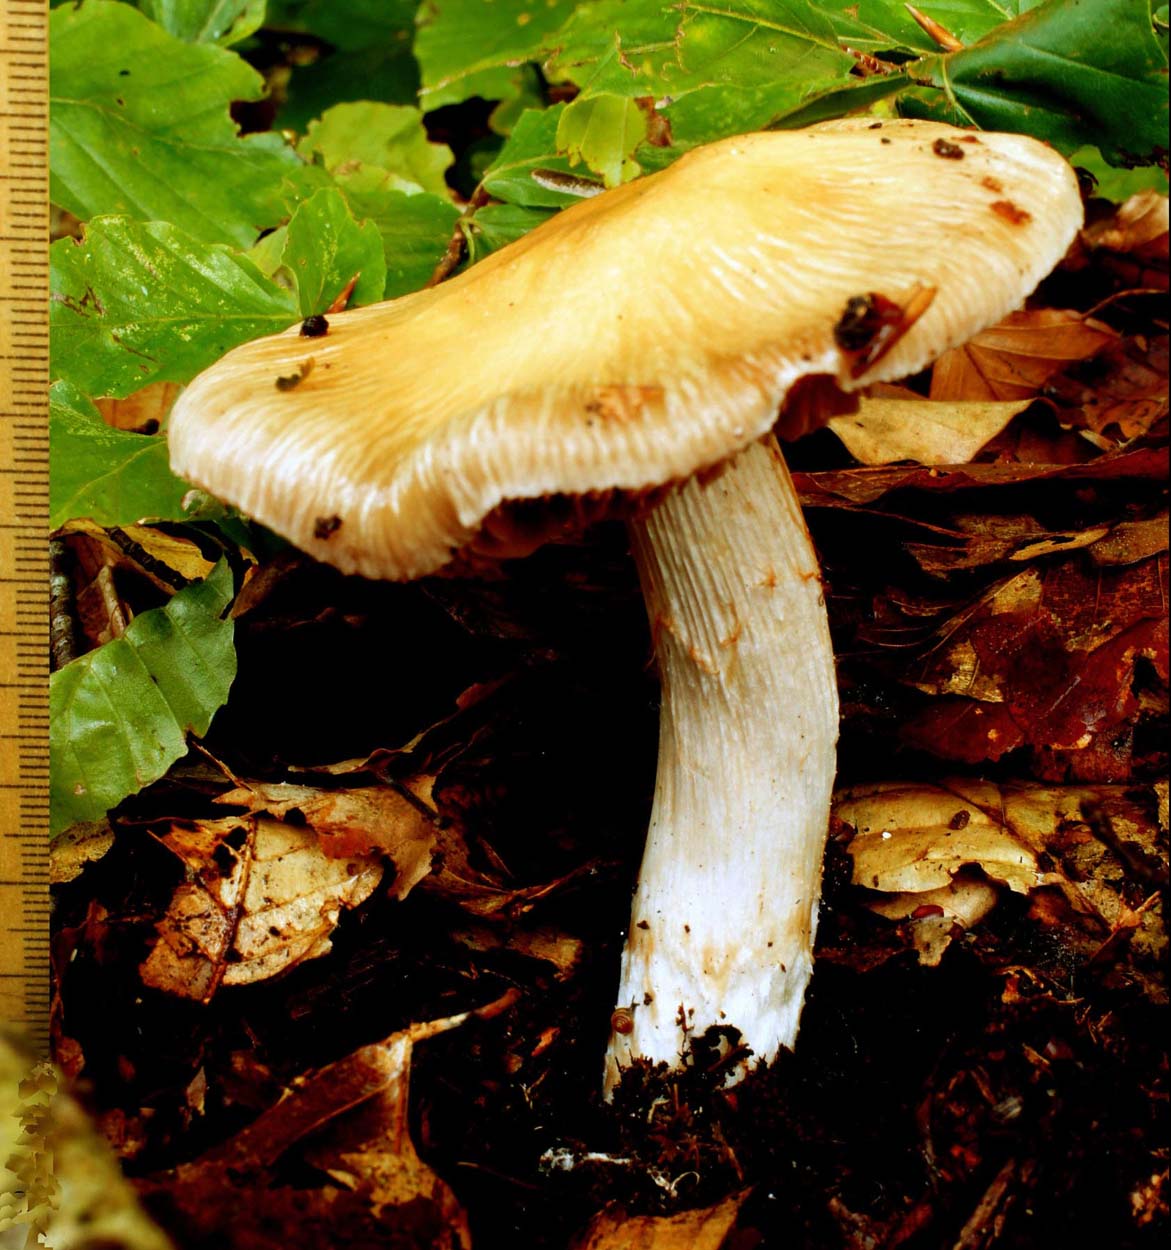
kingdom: Fungi
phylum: Basidiomycota
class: Agaricomycetes
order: Agaricales
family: Cortinariaceae
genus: Cortinarius
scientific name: Cortinarius elatior
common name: høj slørhat
